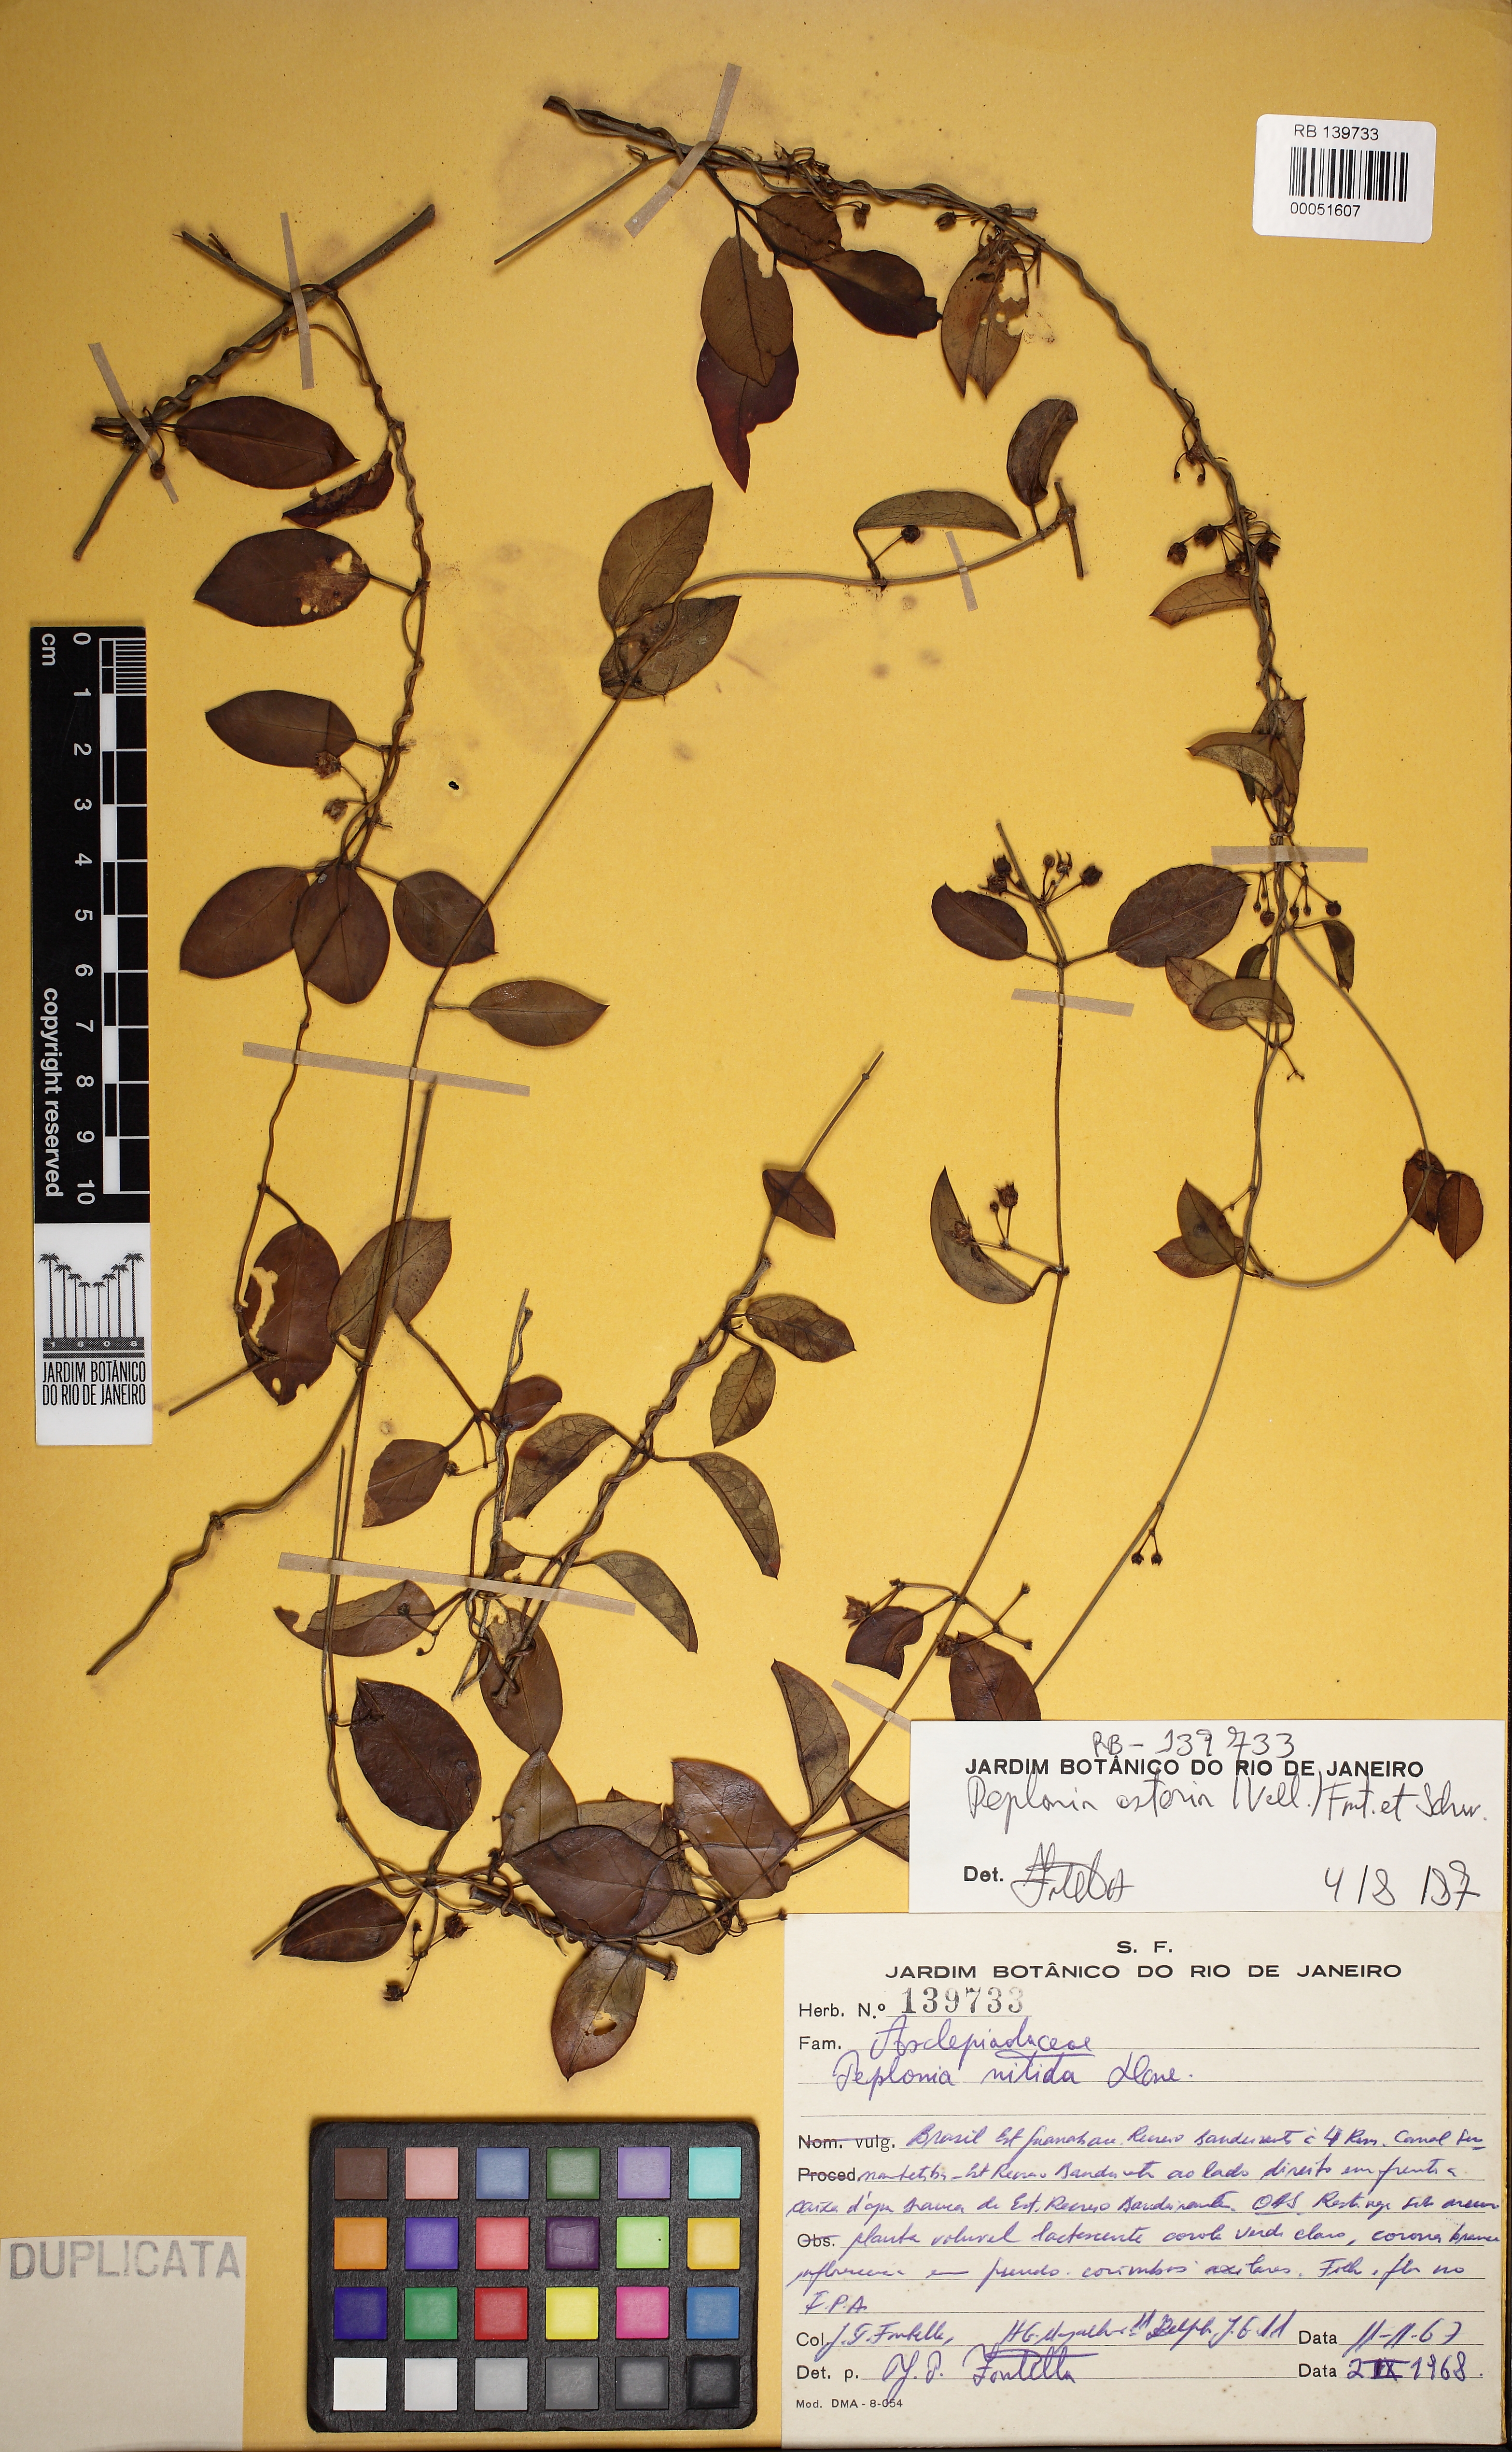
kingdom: Plantae
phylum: Tracheophyta
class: Magnoliopsida
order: Gentianales
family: Apocynaceae
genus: Peplonia
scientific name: Peplonia asteria
